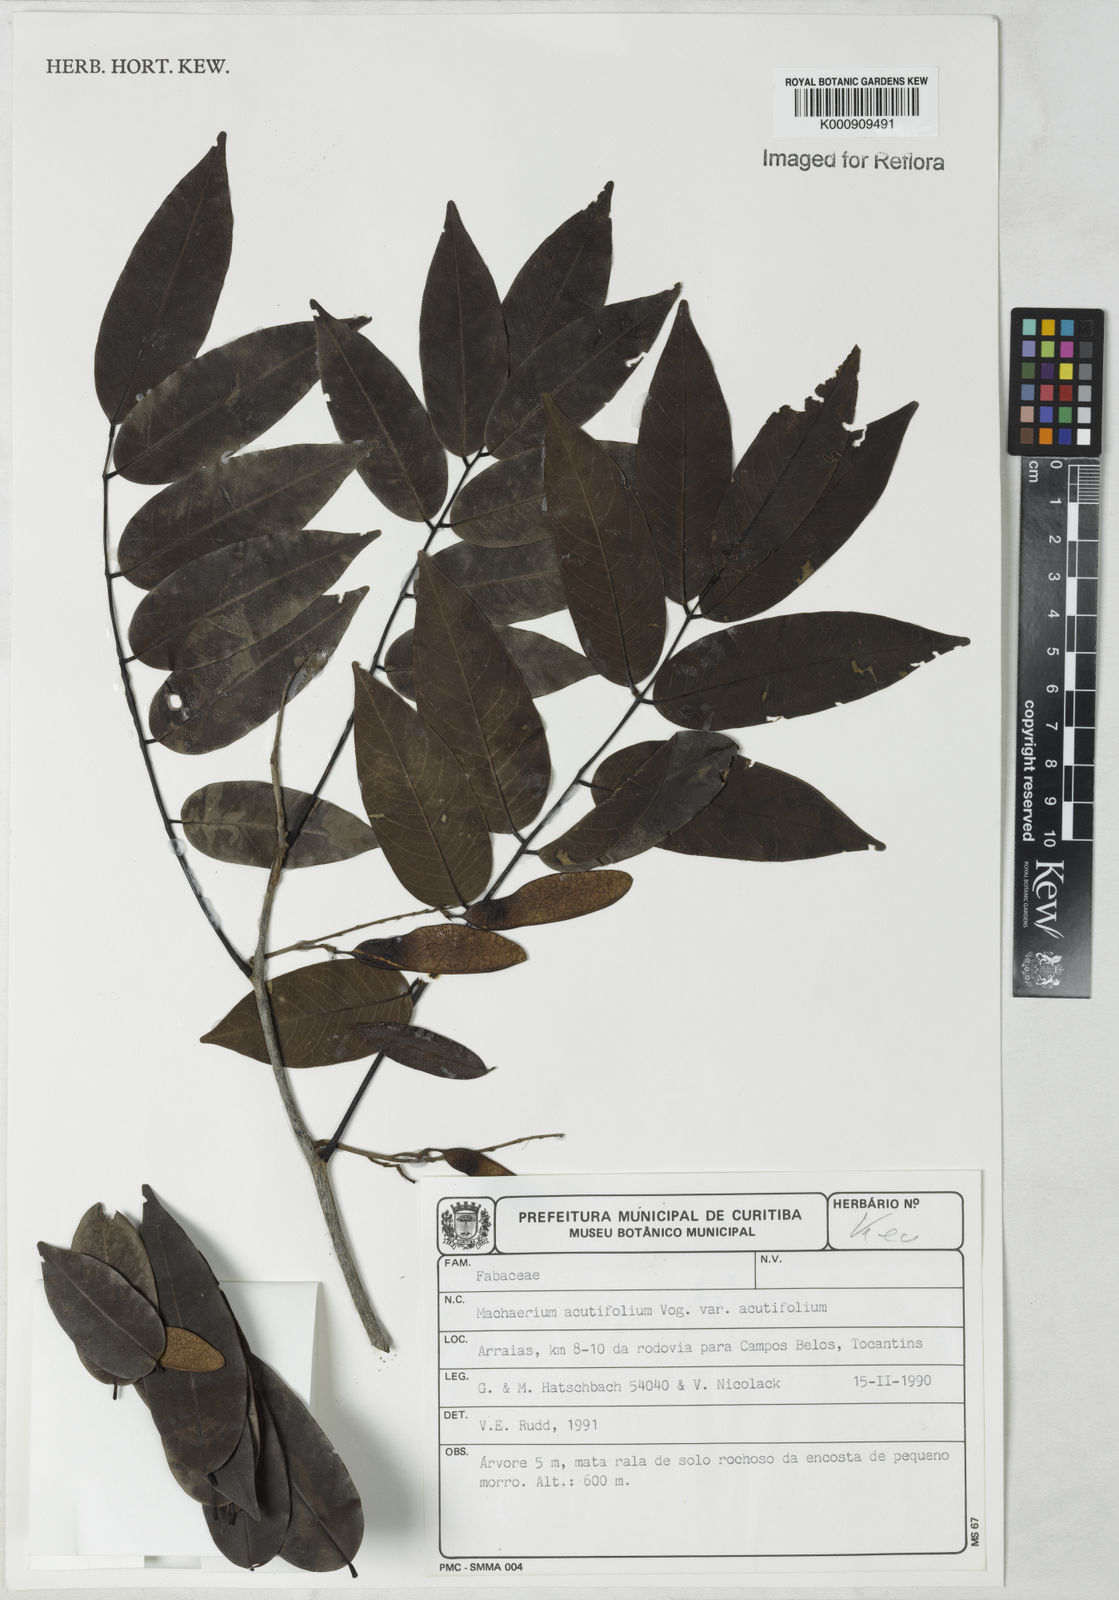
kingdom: Plantae
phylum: Tracheophyta
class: Magnoliopsida
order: Fabales
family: Fabaceae
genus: Machaerium
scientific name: Machaerium acutifolium
